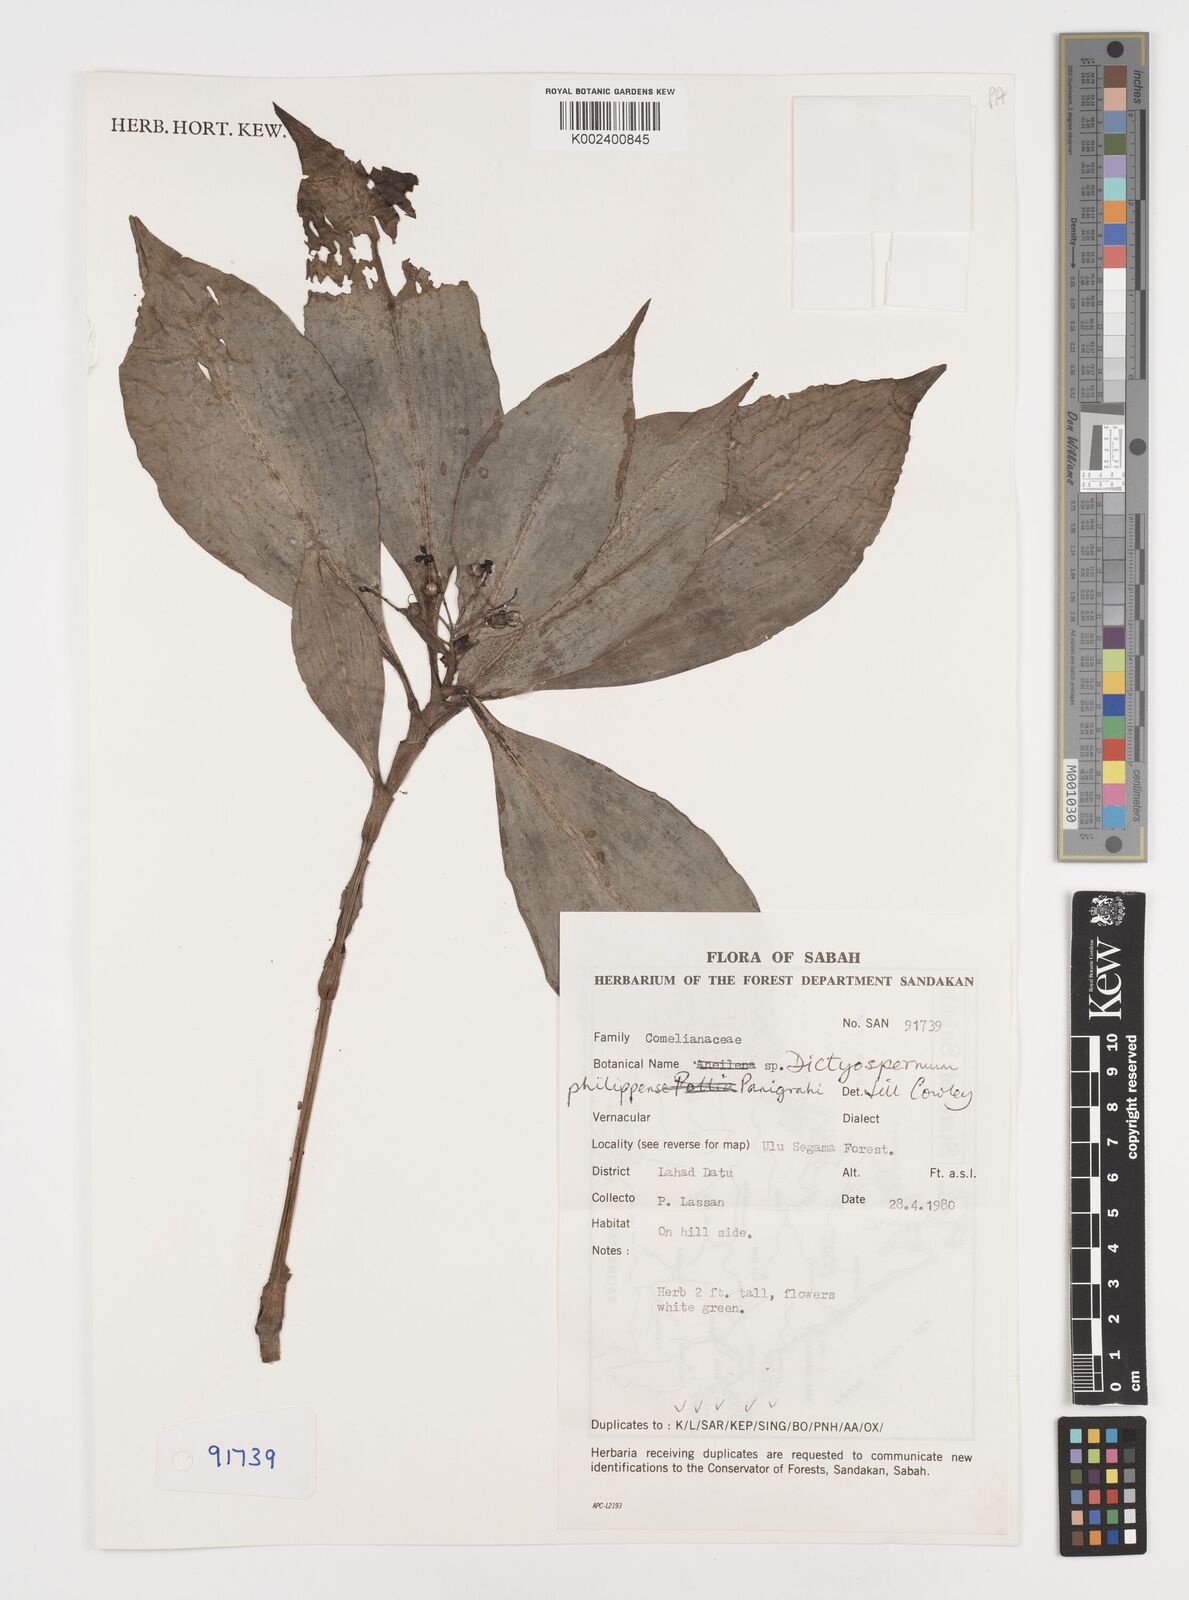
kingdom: Plantae
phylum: Tracheophyta
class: Liliopsida
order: Commelinales
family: Commelinaceae
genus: Tricarpelema
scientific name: Tricarpelema philippense
